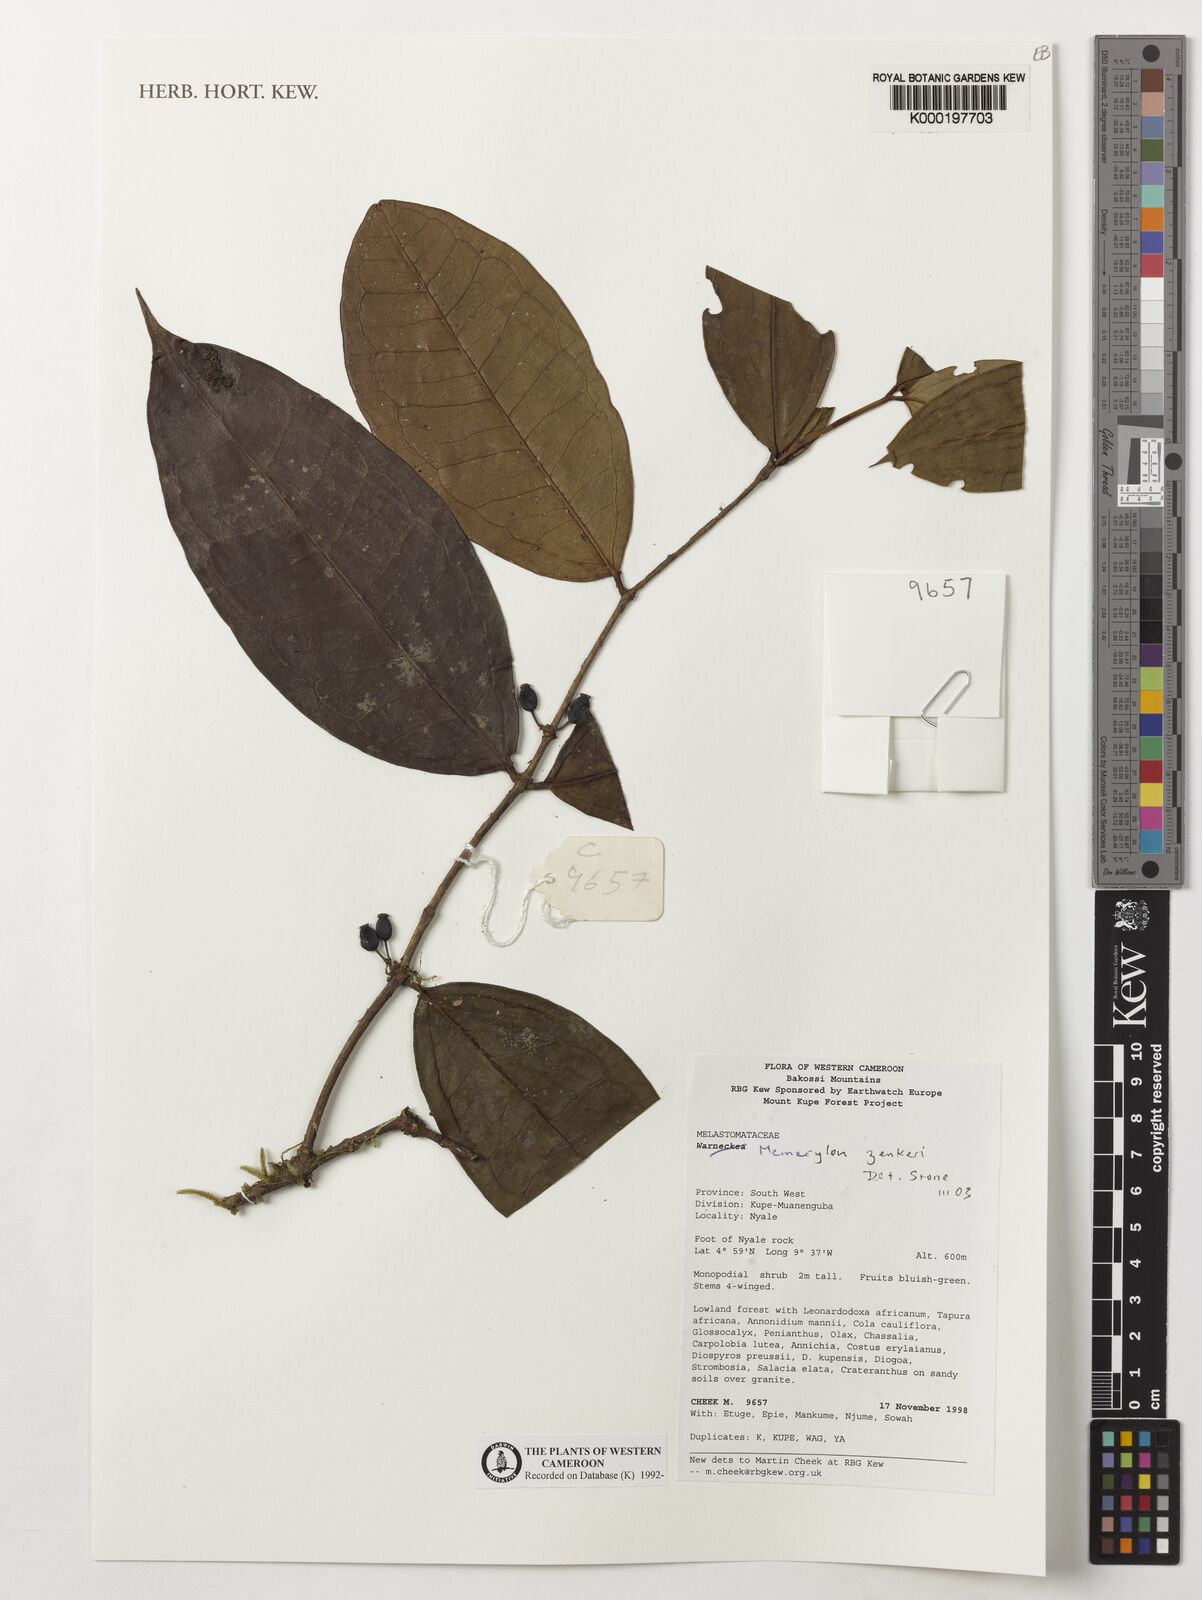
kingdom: Plantae
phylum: Tracheophyta
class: Magnoliopsida
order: Myrtales
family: Melastomataceae
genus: Memecylon
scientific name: Memecylon zenkeri
